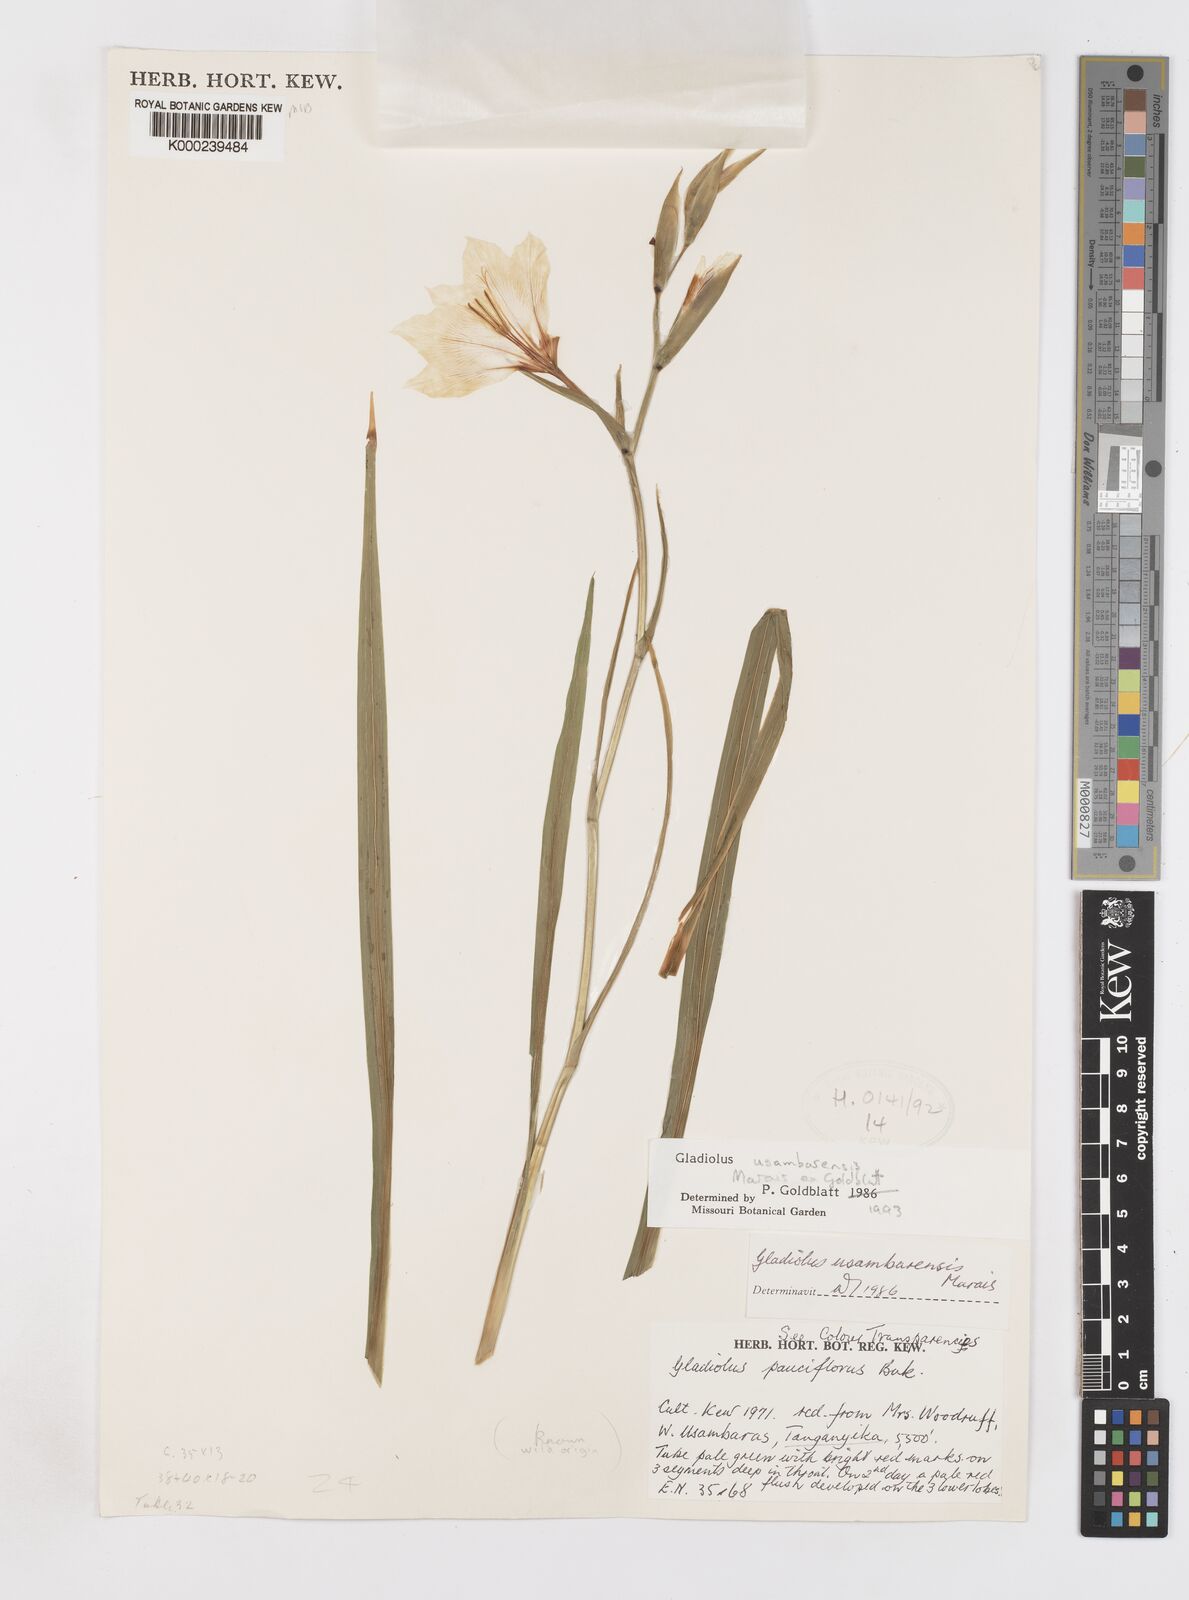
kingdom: Plantae
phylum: Tracheophyta
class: Liliopsida
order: Asparagales
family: Iridaceae
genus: Gladiolus
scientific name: Gladiolus usambarensis
